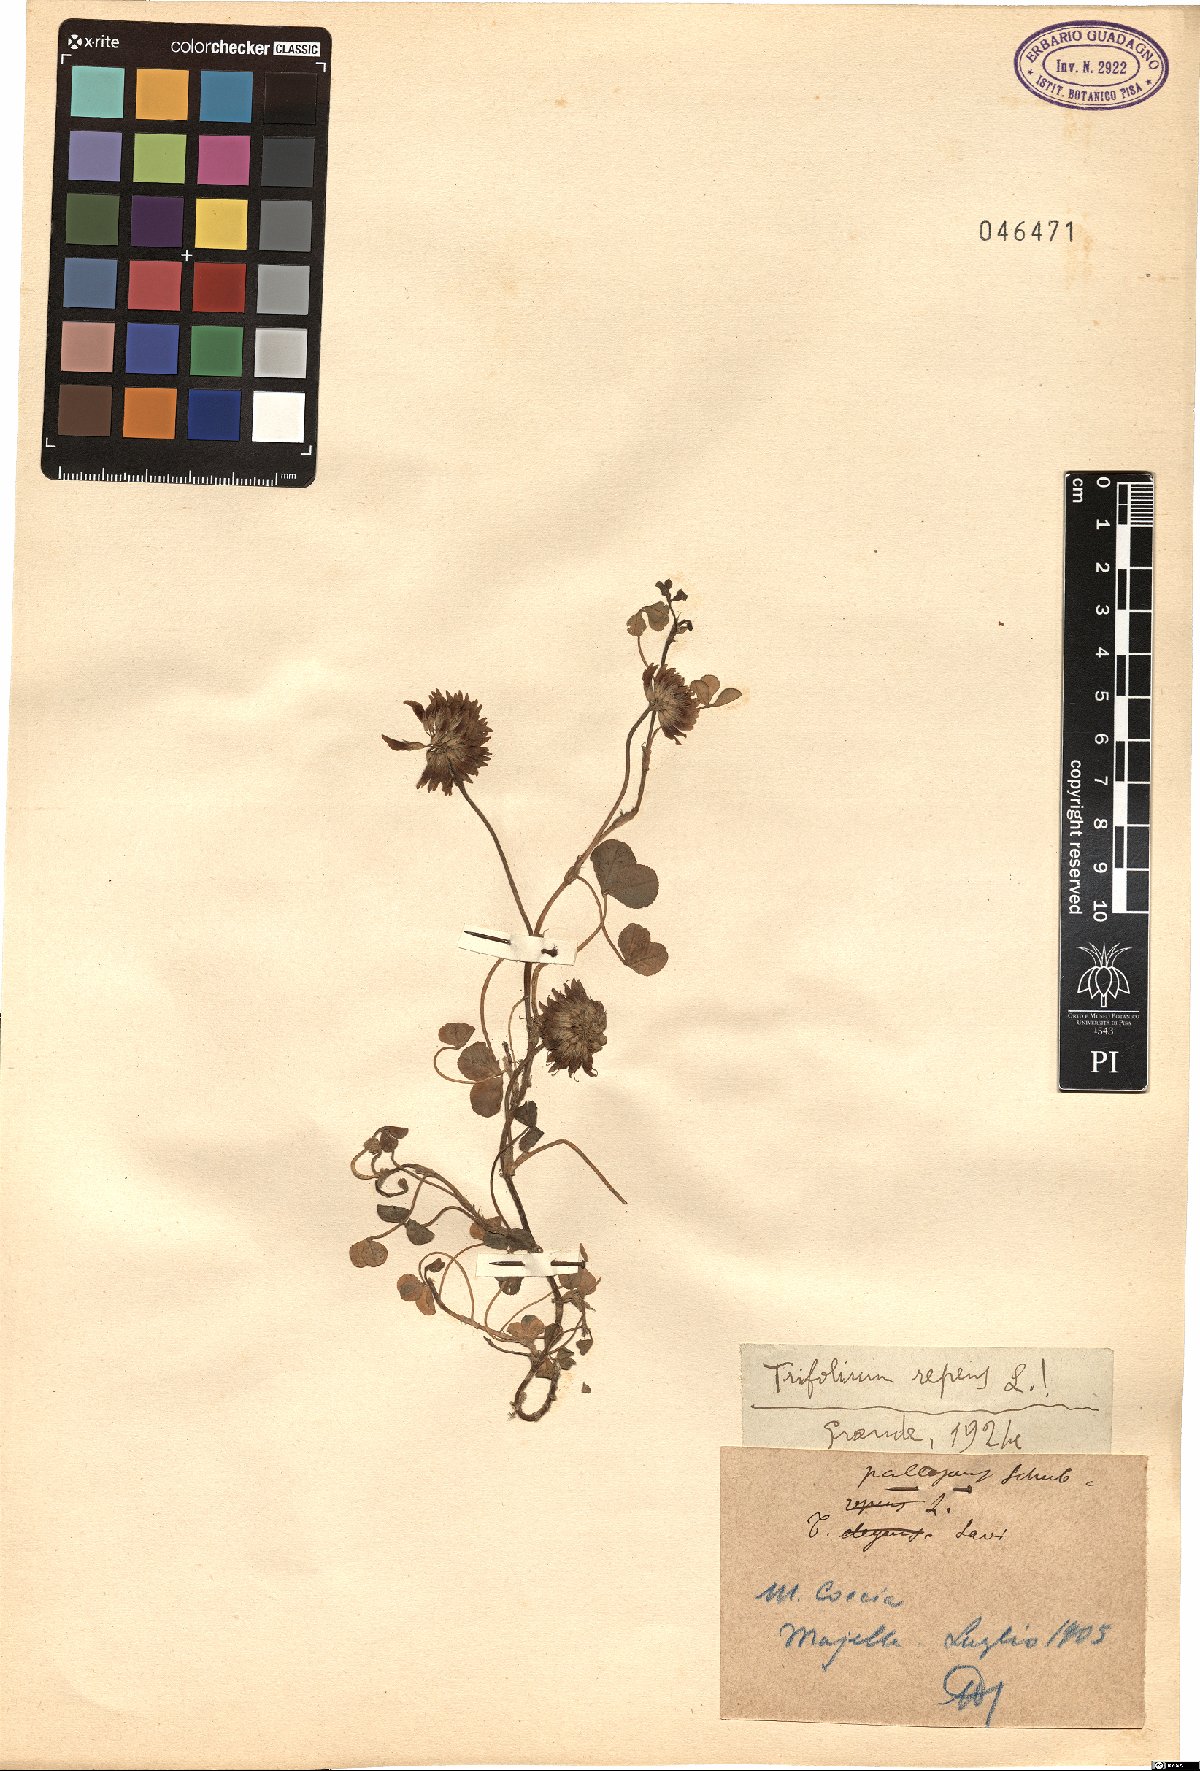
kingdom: Plantae
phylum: Tracheophyta
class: Magnoliopsida
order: Fabales
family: Fabaceae
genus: Trifolium
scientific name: Trifolium repens
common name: White clover
